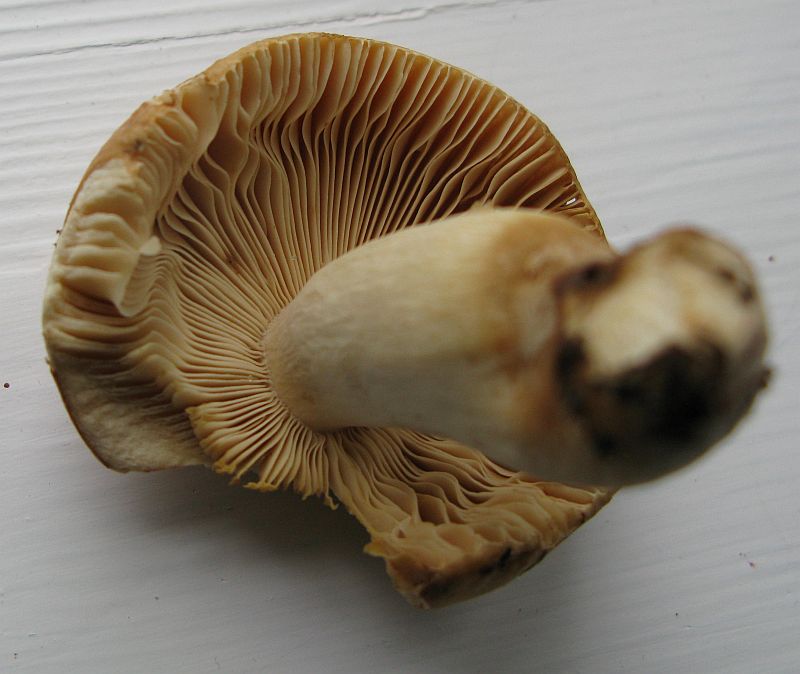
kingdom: Fungi
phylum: Basidiomycota
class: Agaricomycetes
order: Russulales
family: Russulaceae
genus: Russula
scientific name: Russula fellea
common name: galde-skørhat
